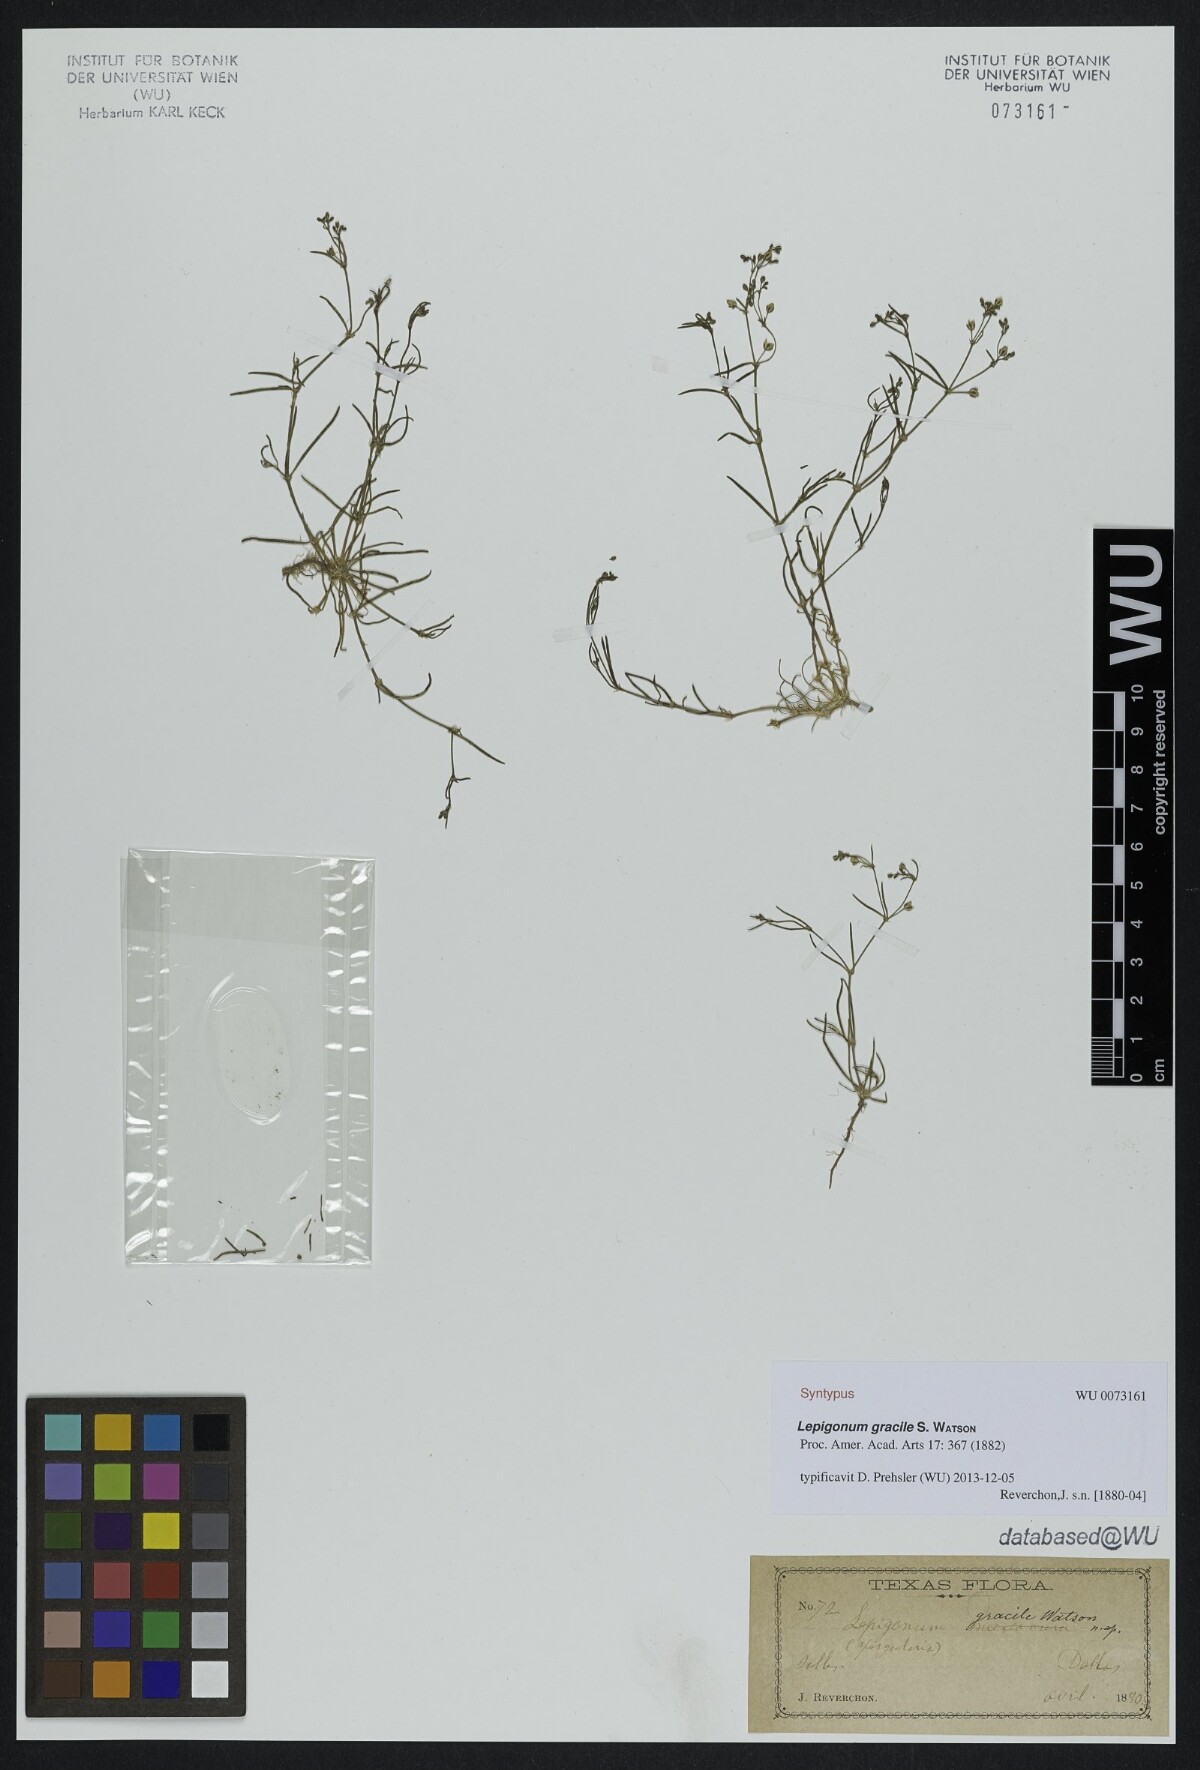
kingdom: Plantae
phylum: Tracheophyta
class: Magnoliopsida
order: Caryophyllales
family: Caryophyllaceae
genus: Spergula
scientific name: Spergula platensis
